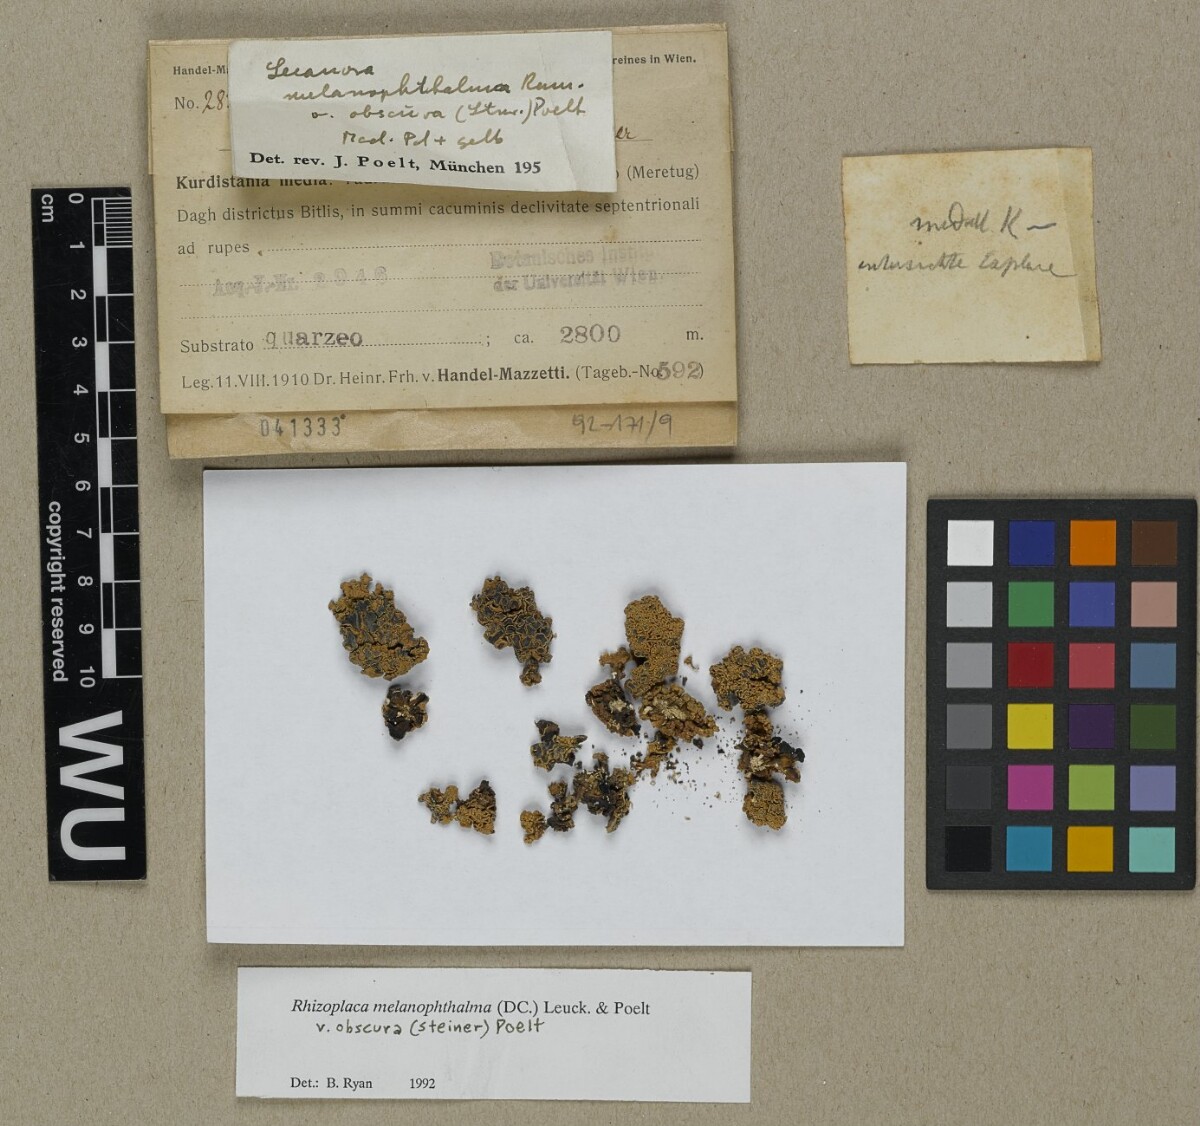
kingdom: Fungi
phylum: Ascomycota
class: Lecanoromycetes
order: Lecanorales
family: Lecanoraceae
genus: Rhizoplaca
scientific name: Rhizoplaca melanophthalma
